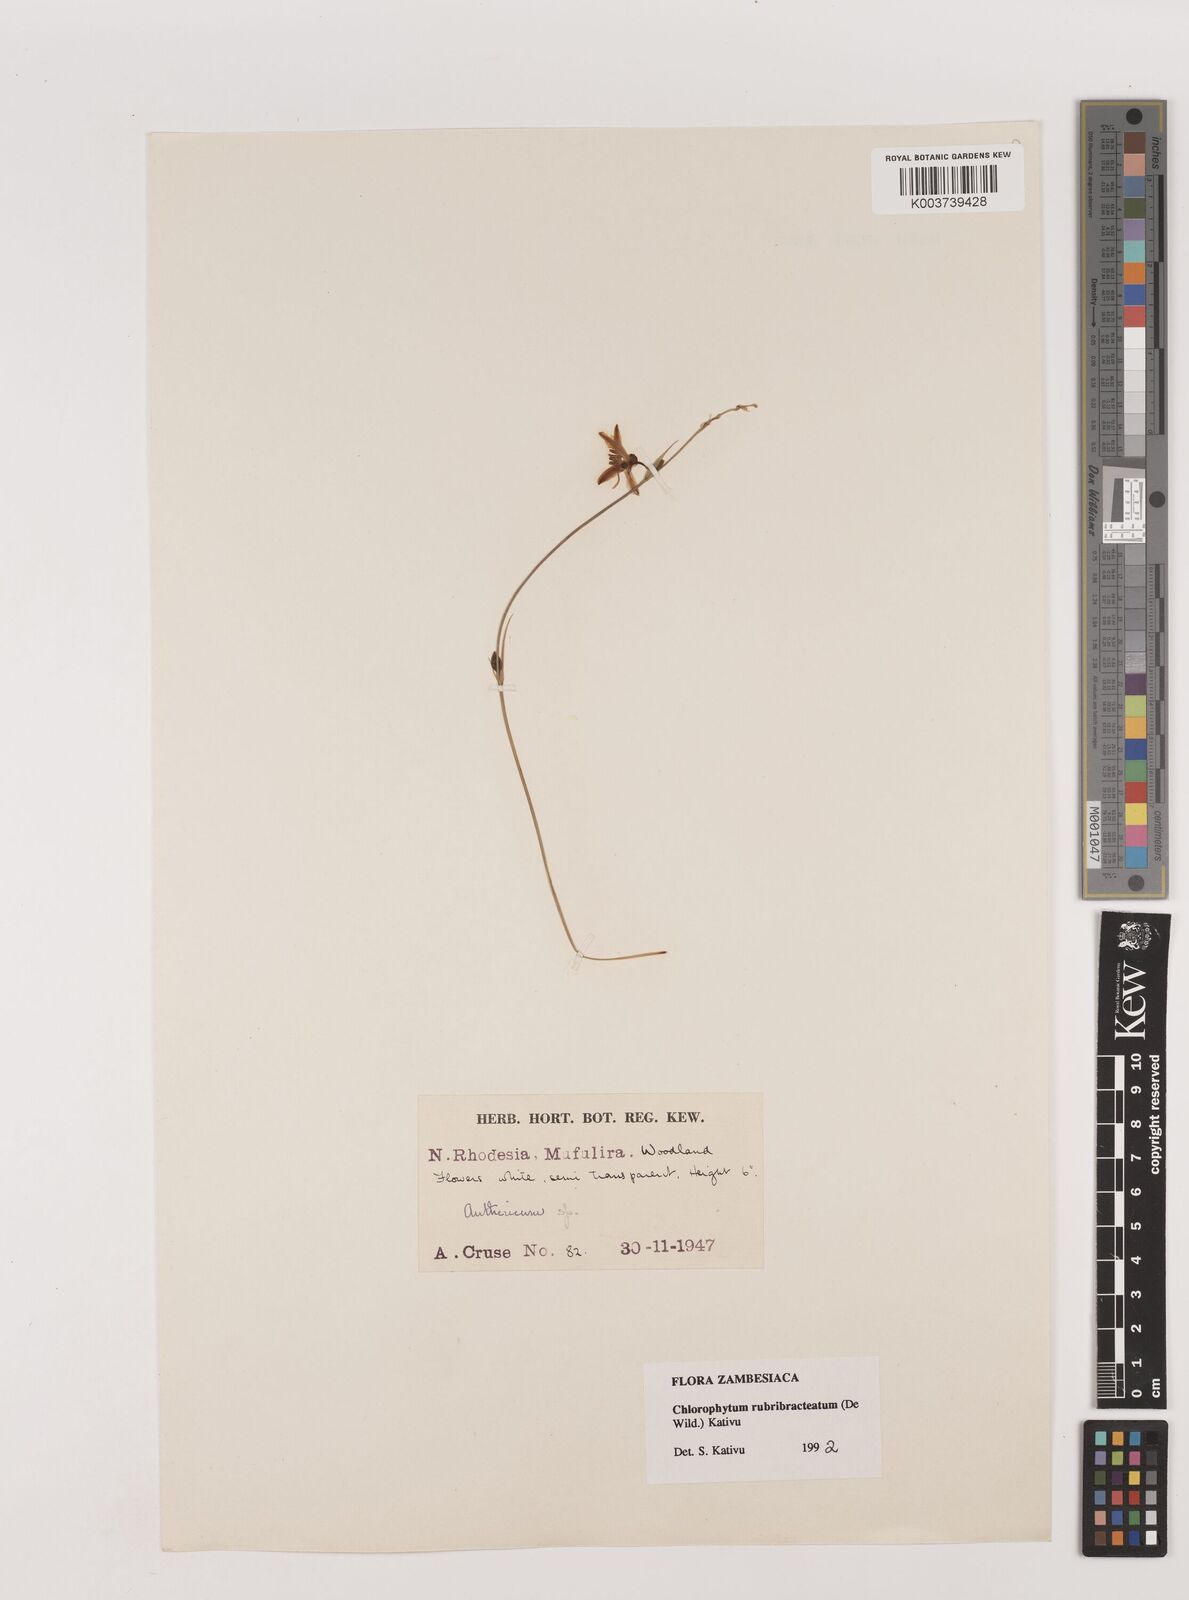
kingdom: Plantae
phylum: Tracheophyta
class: Liliopsida
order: Asparagales
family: Asparagaceae
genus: Chlorophytum
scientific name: Chlorophytum rubribracteatum
